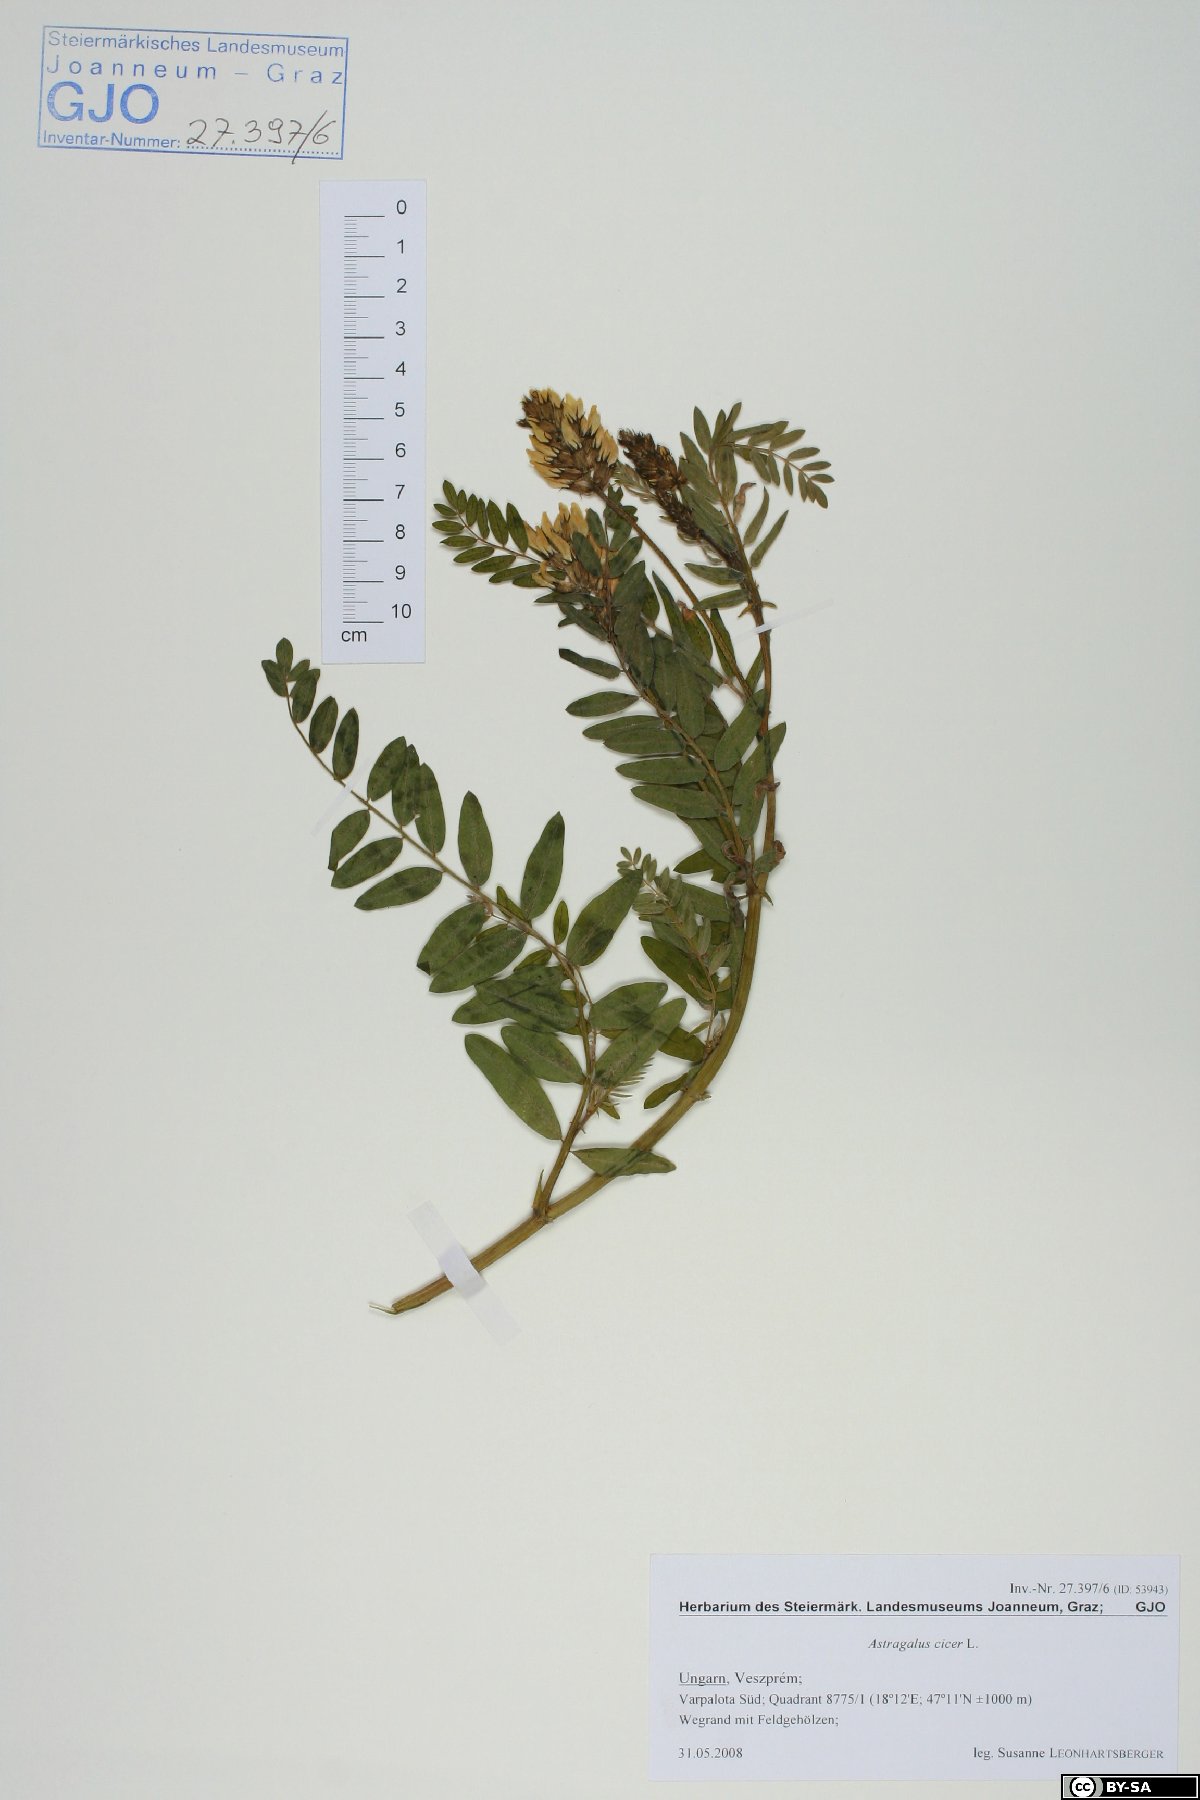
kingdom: Plantae
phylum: Tracheophyta
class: Magnoliopsida
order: Fabales
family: Fabaceae
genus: Astragalus
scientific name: Astragalus cicer
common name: Chick-pea milk-vetch
